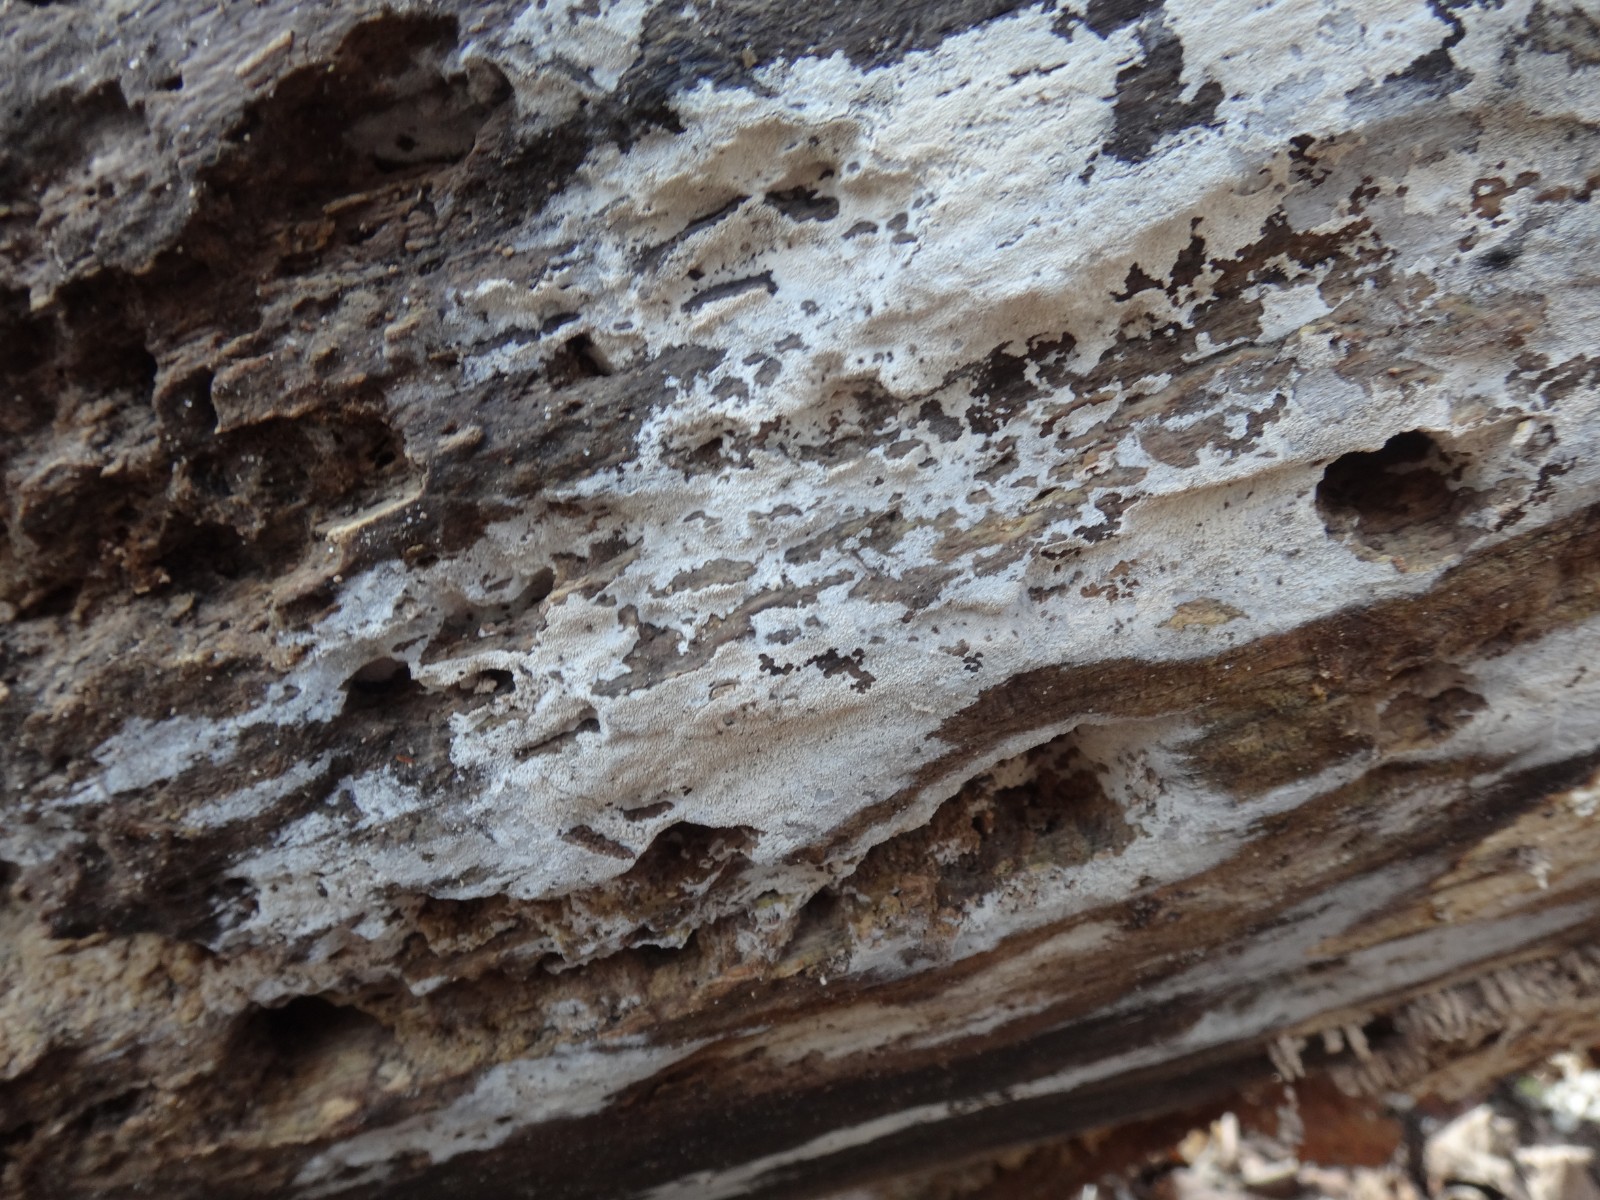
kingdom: Fungi
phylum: Basidiomycota
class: Agaricomycetes
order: Cantharellales
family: Hydnaceae
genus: Sistotrema
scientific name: Sistotrema brinkmannii
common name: bønnesporet kroneskorpe
